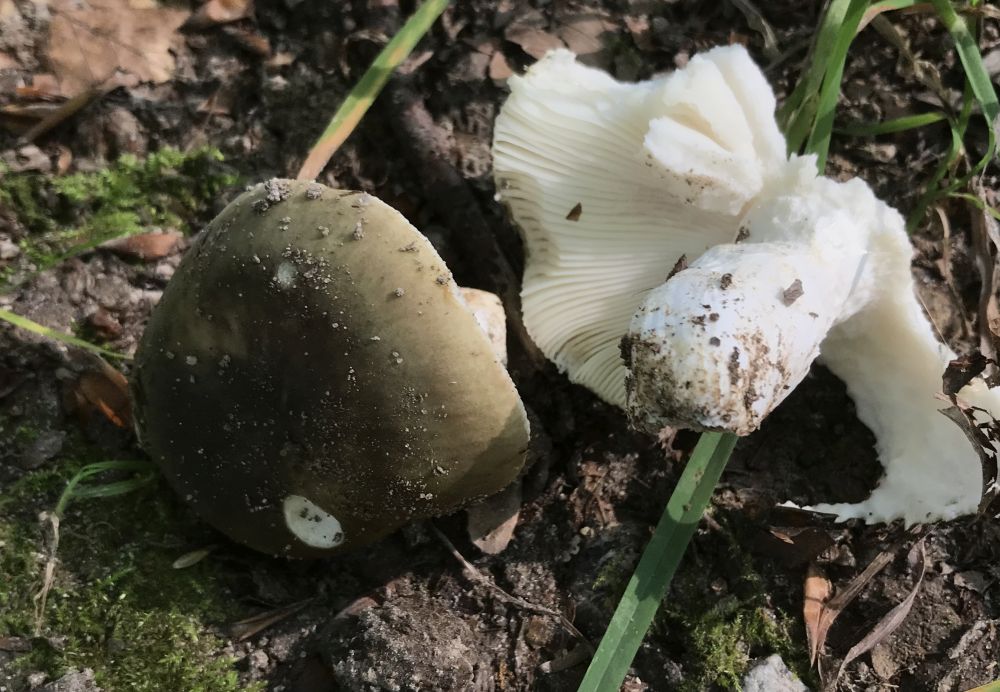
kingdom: Fungi
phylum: Basidiomycota
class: Agaricomycetes
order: Russulales
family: Russulaceae
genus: Russula
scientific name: Russula
